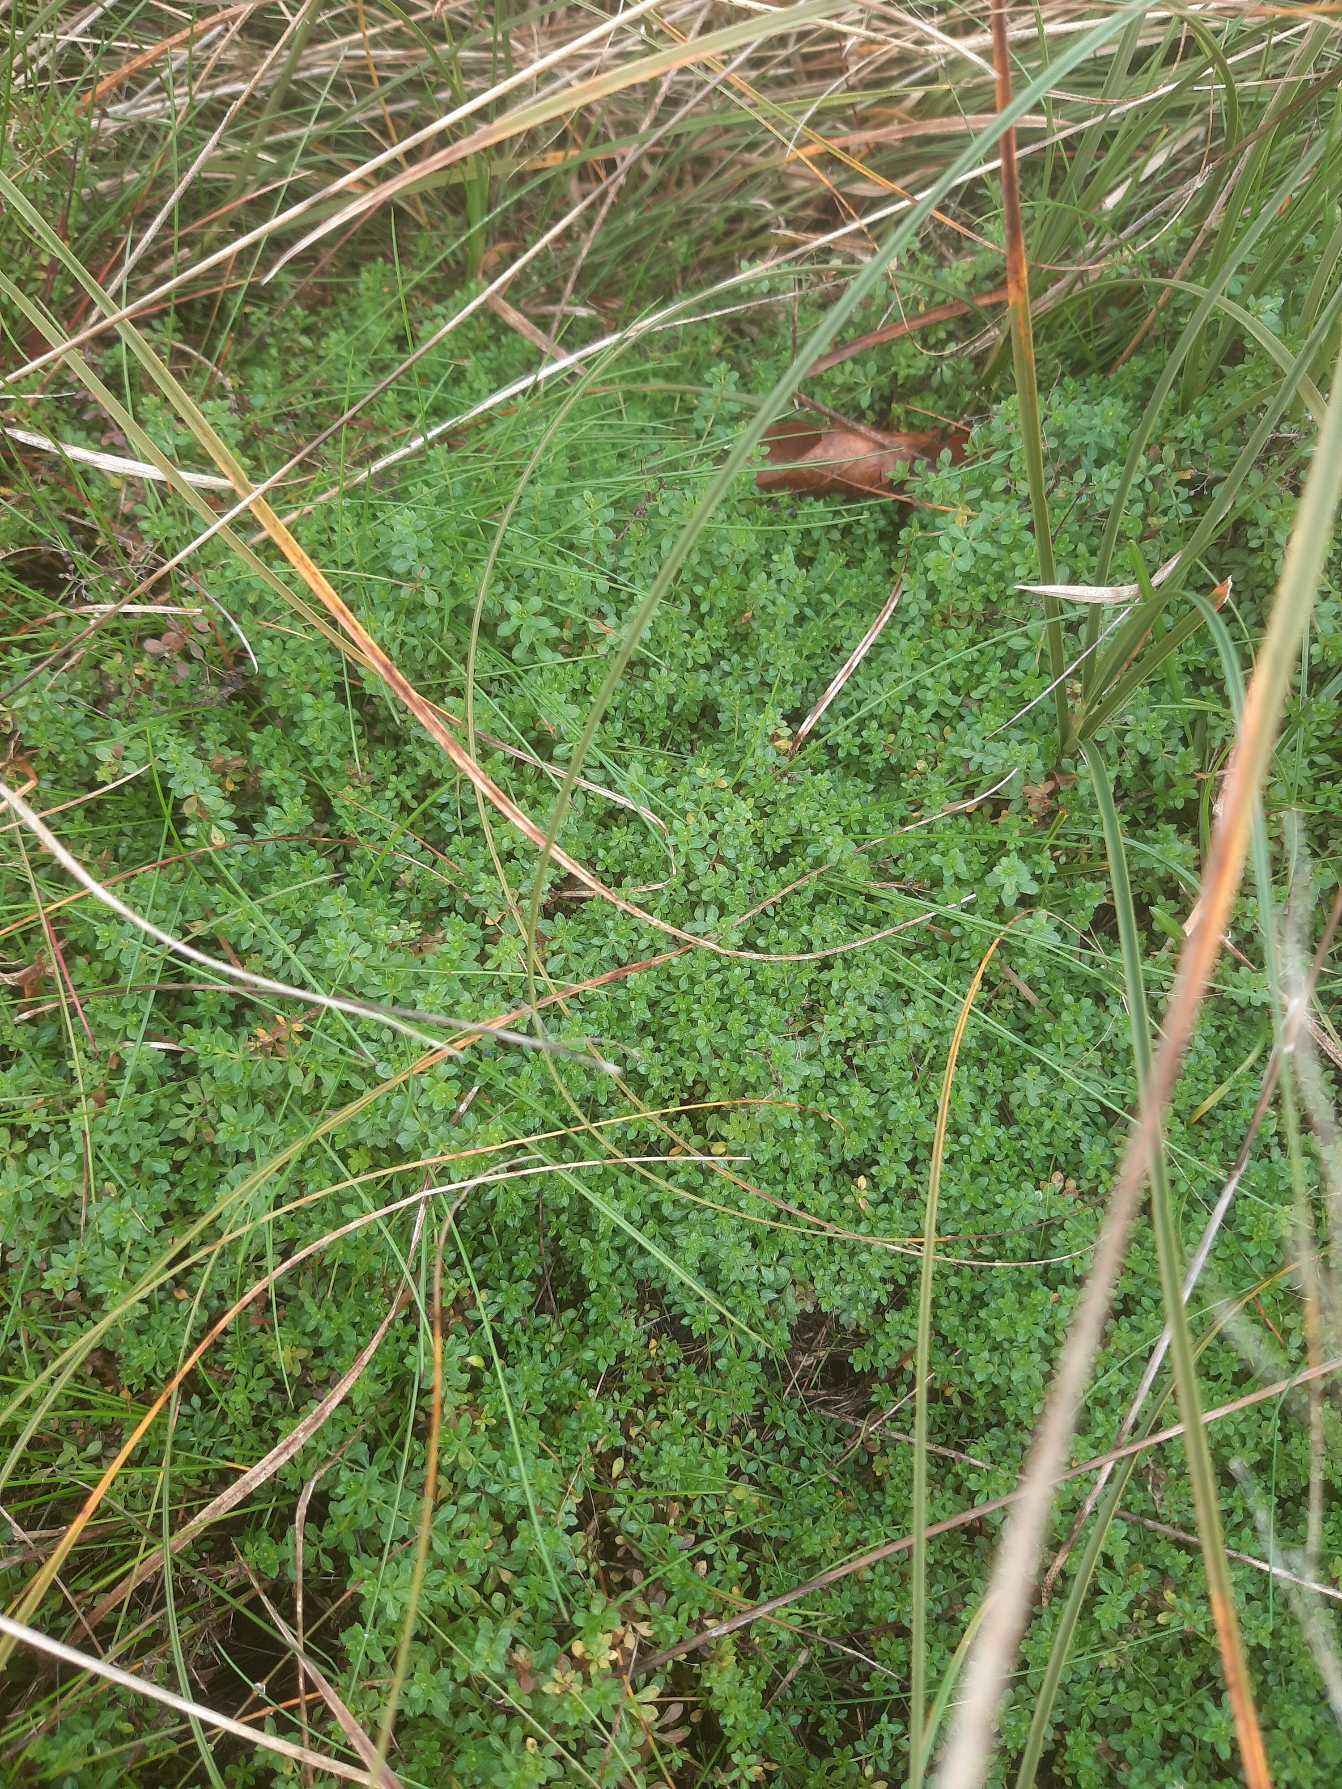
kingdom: Plantae
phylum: Tracheophyta
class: Magnoliopsida
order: Gentianales
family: Rubiaceae
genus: Galium
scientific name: Galium saxatile
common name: Lyng-snerre
